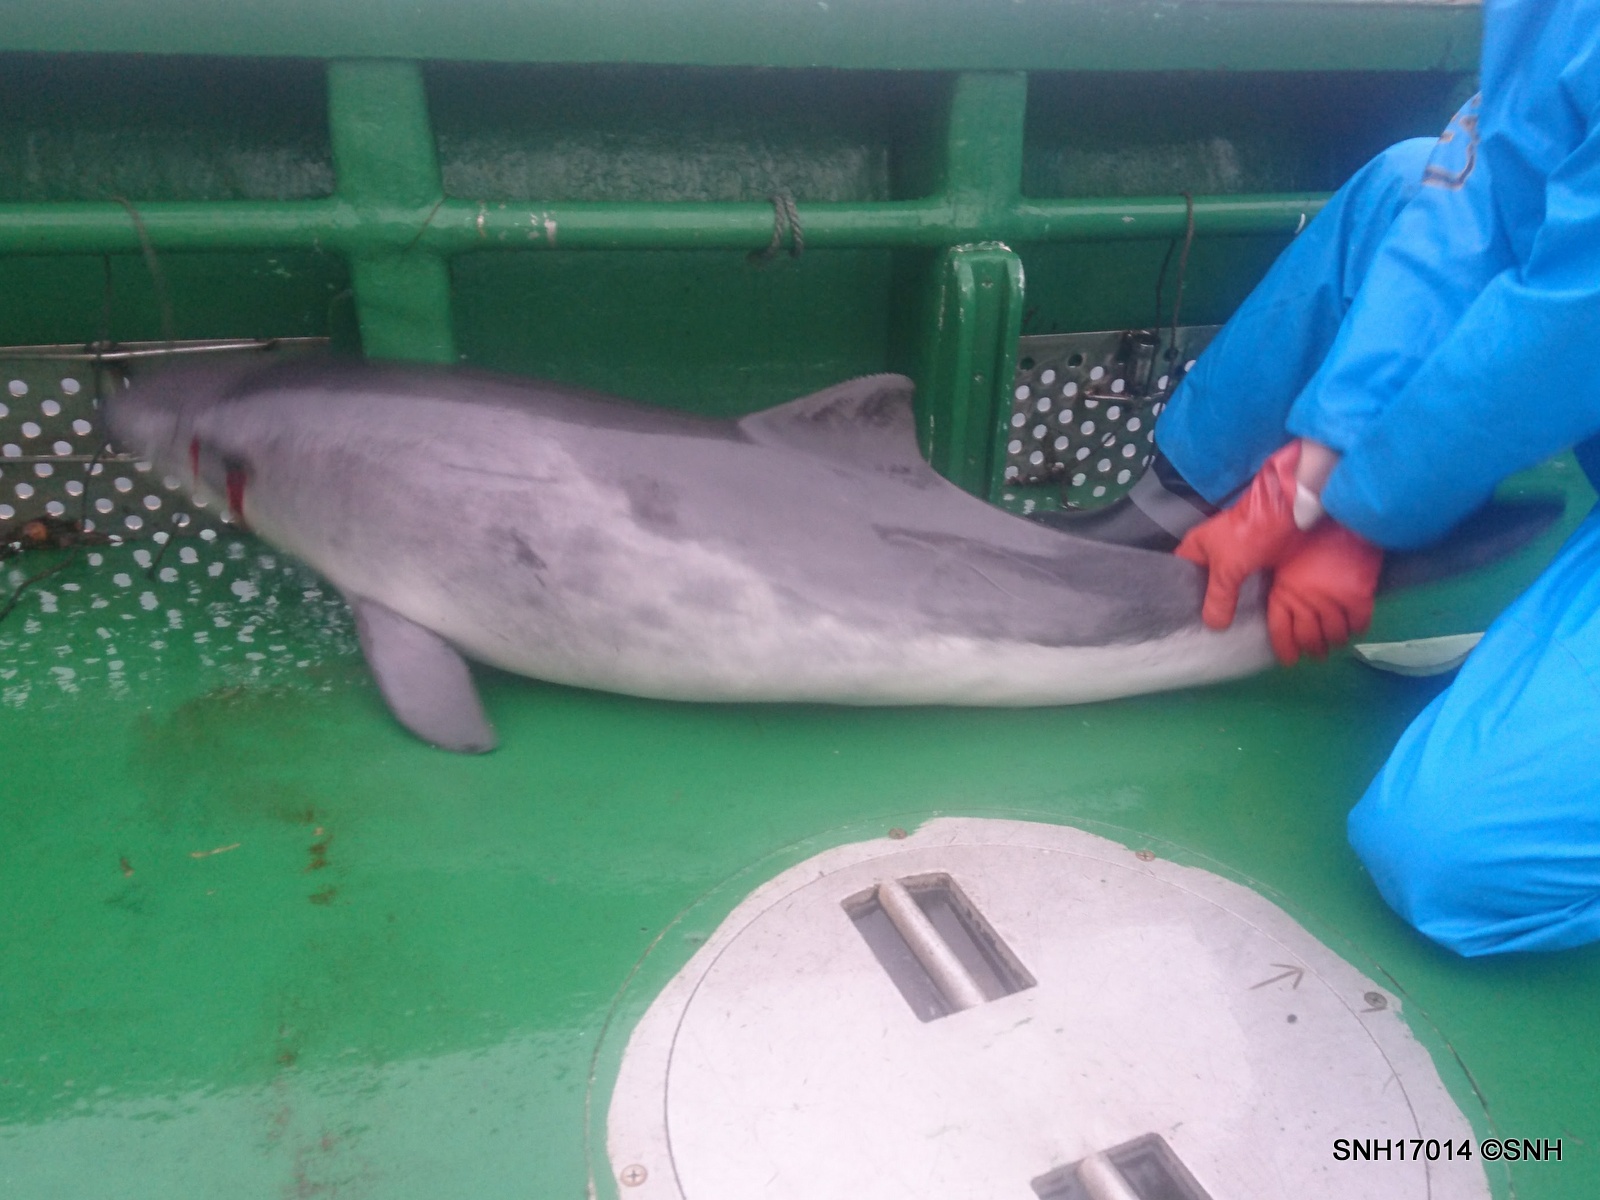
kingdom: Animalia
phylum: Chordata
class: Mammalia
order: Cetacea
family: Phocoenidae
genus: Phocoena
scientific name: Phocoena phocoena
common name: Harbour porpoise
